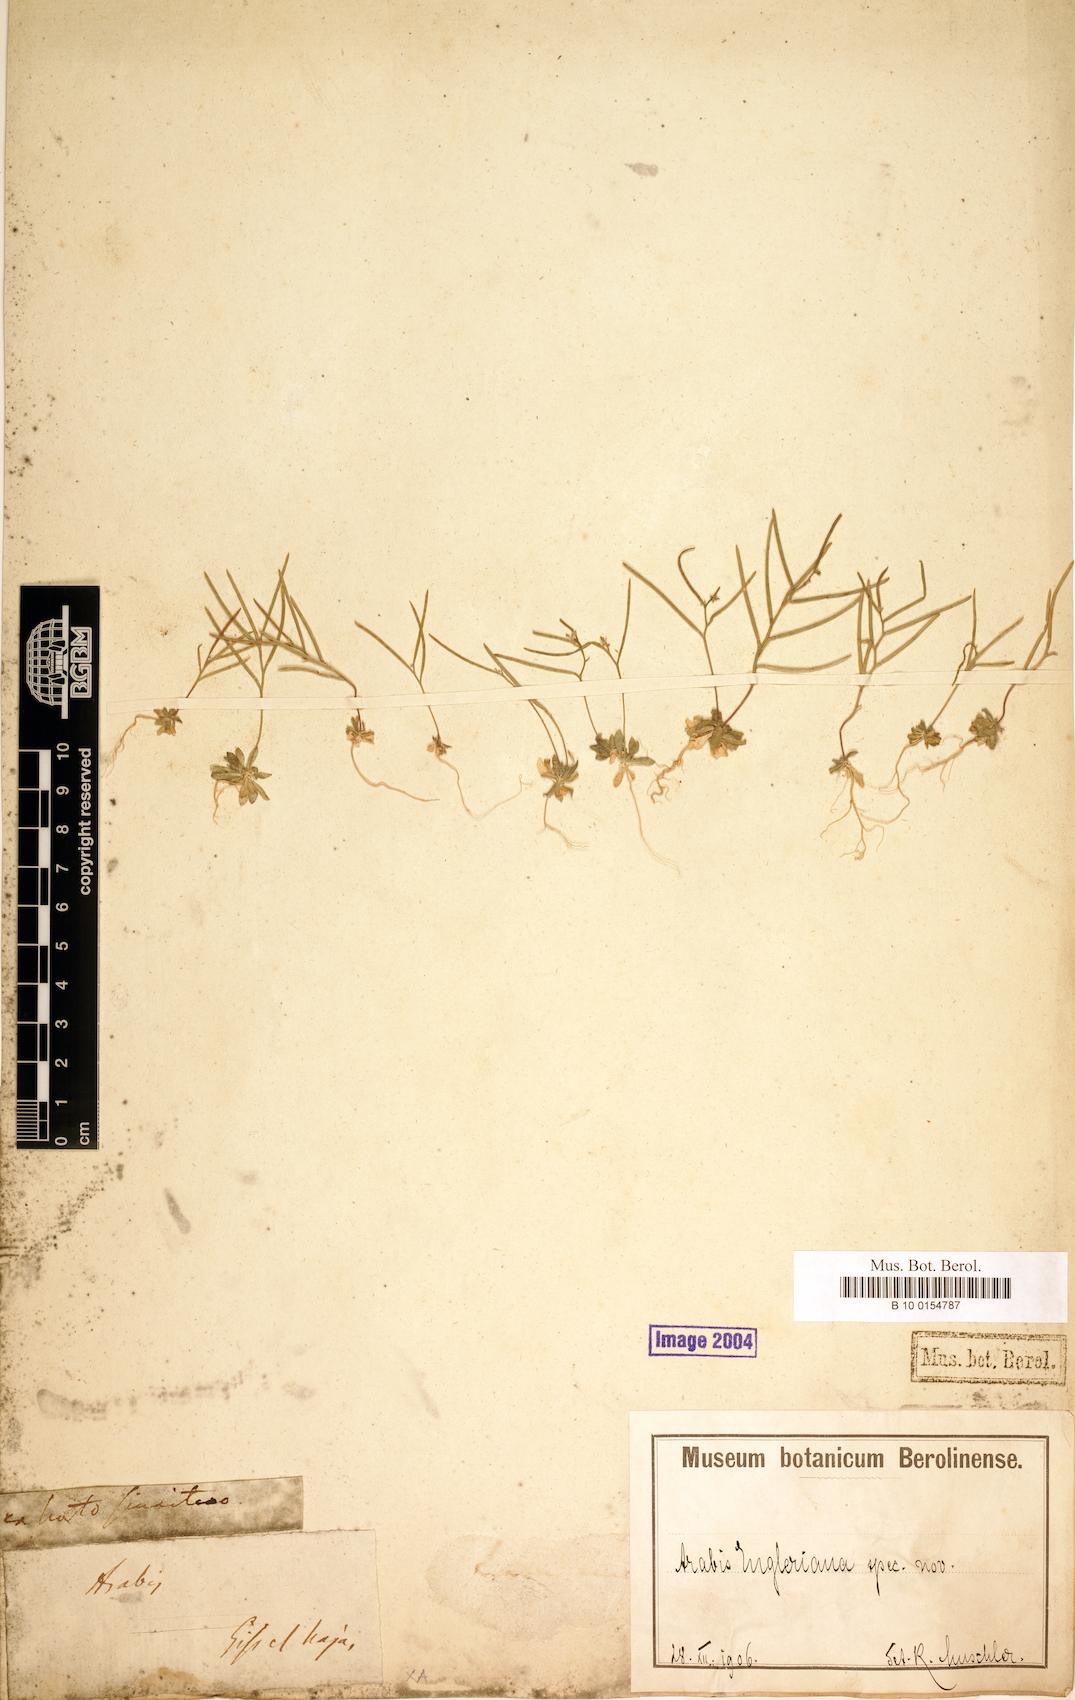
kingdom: Plantae
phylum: Tracheophyta
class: Magnoliopsida
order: Brassicales
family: Brassicaceae
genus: Arabis
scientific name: Arabis engleriana
